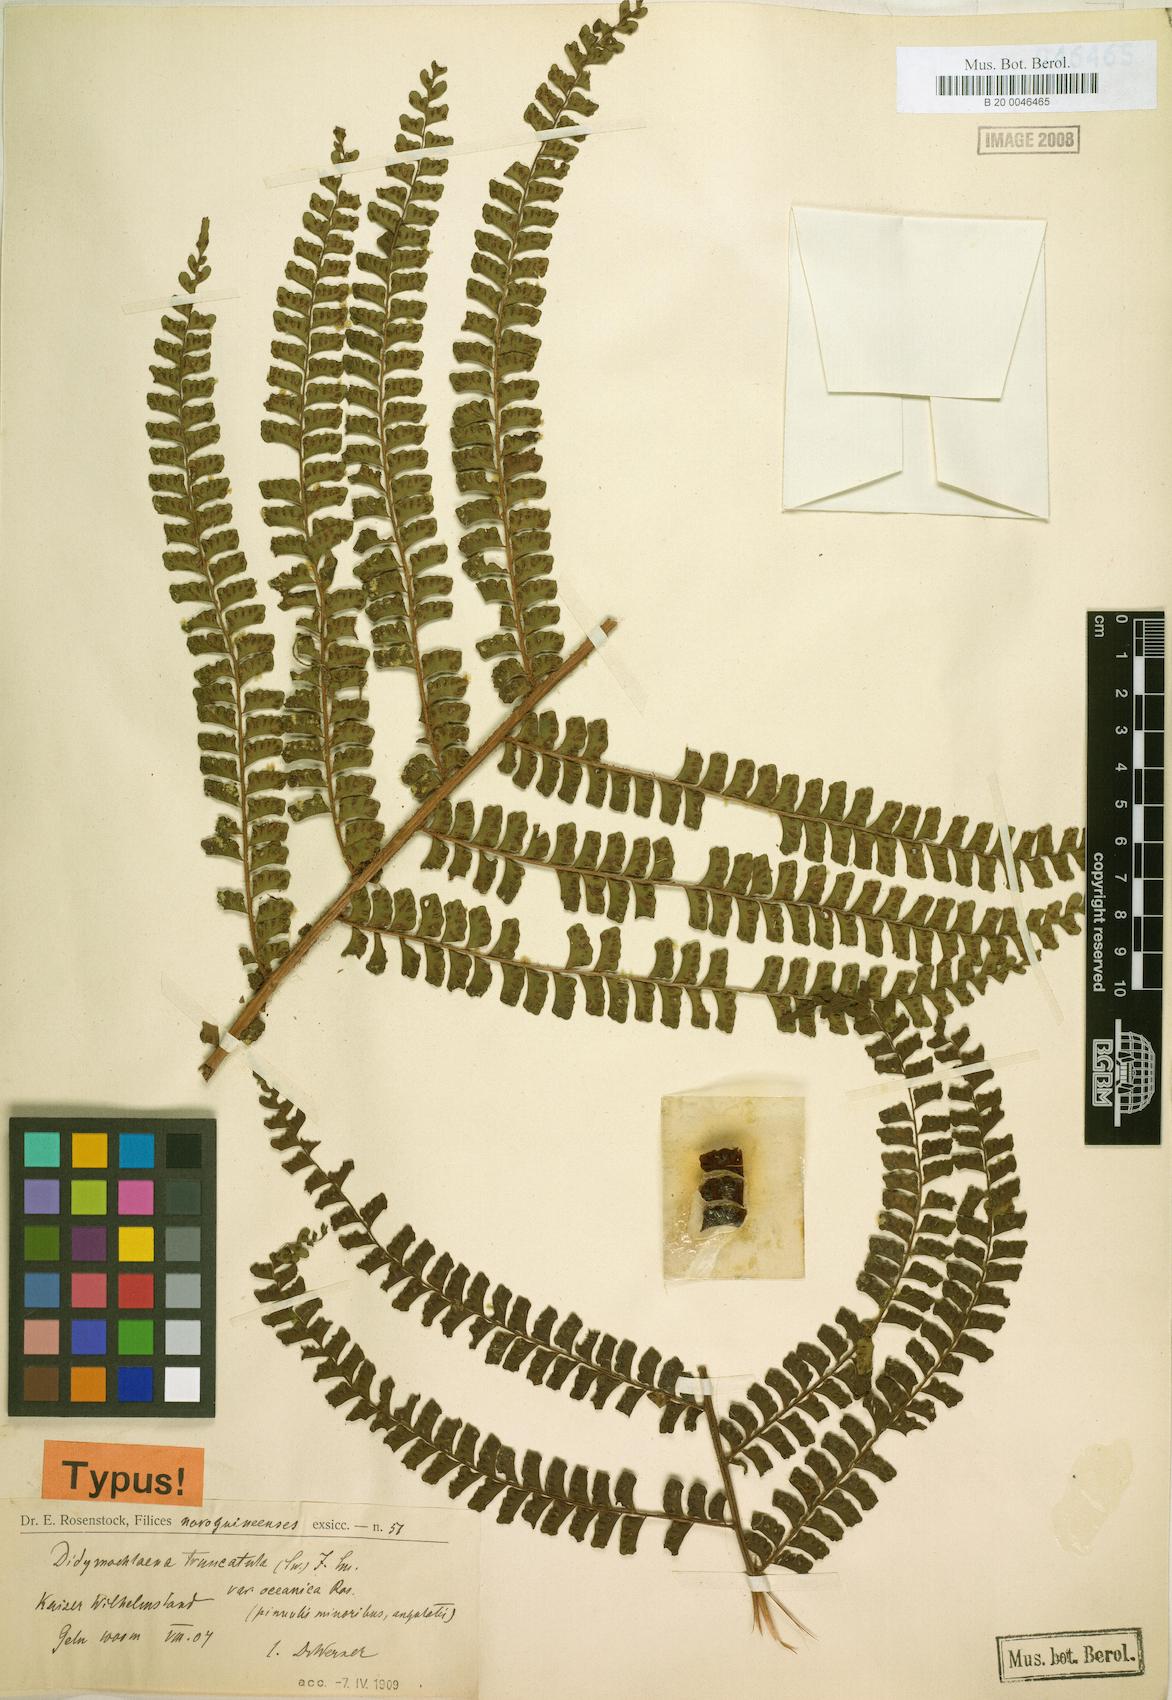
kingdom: Plantae
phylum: Tracheophyta
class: Polypodiopsida
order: Polypodiales
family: Didymochlaenaceae
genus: Didymochlaena
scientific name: Didymochlaena oceanica
